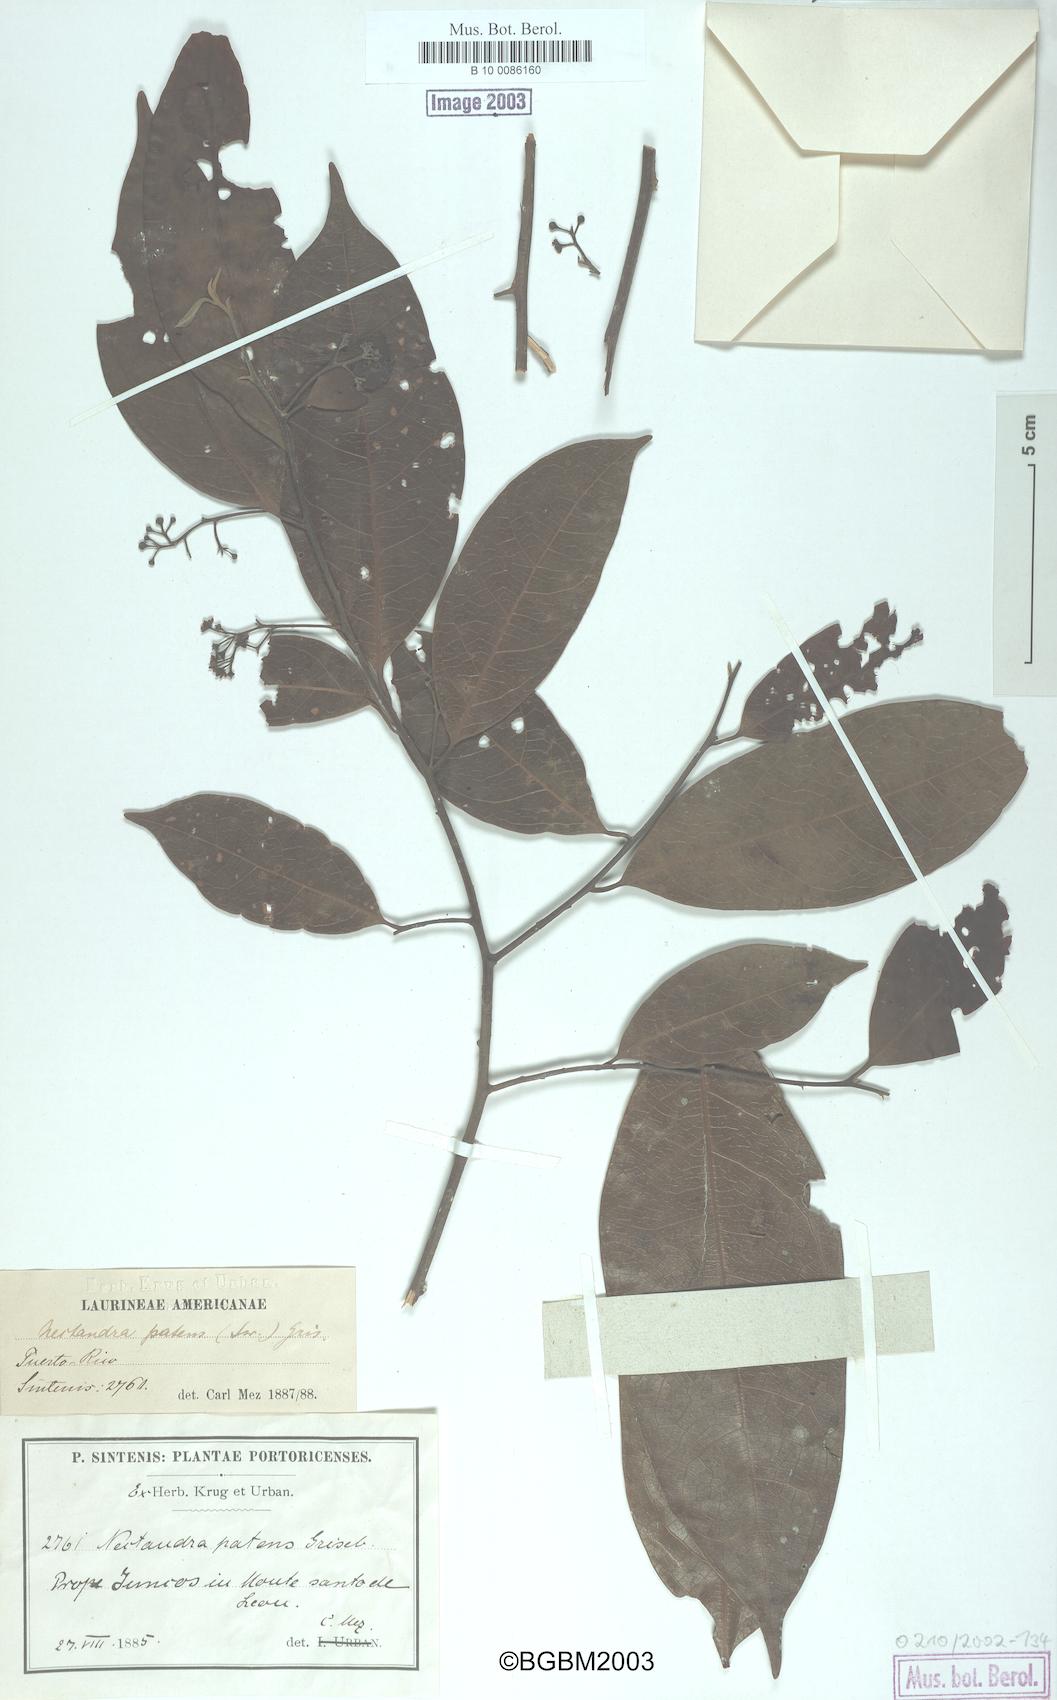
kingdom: Plantae
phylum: Tracheophyta
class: Magnoliopsida
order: Laurales
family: Lauraceae
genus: Damburneya
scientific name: Damburneya patens
